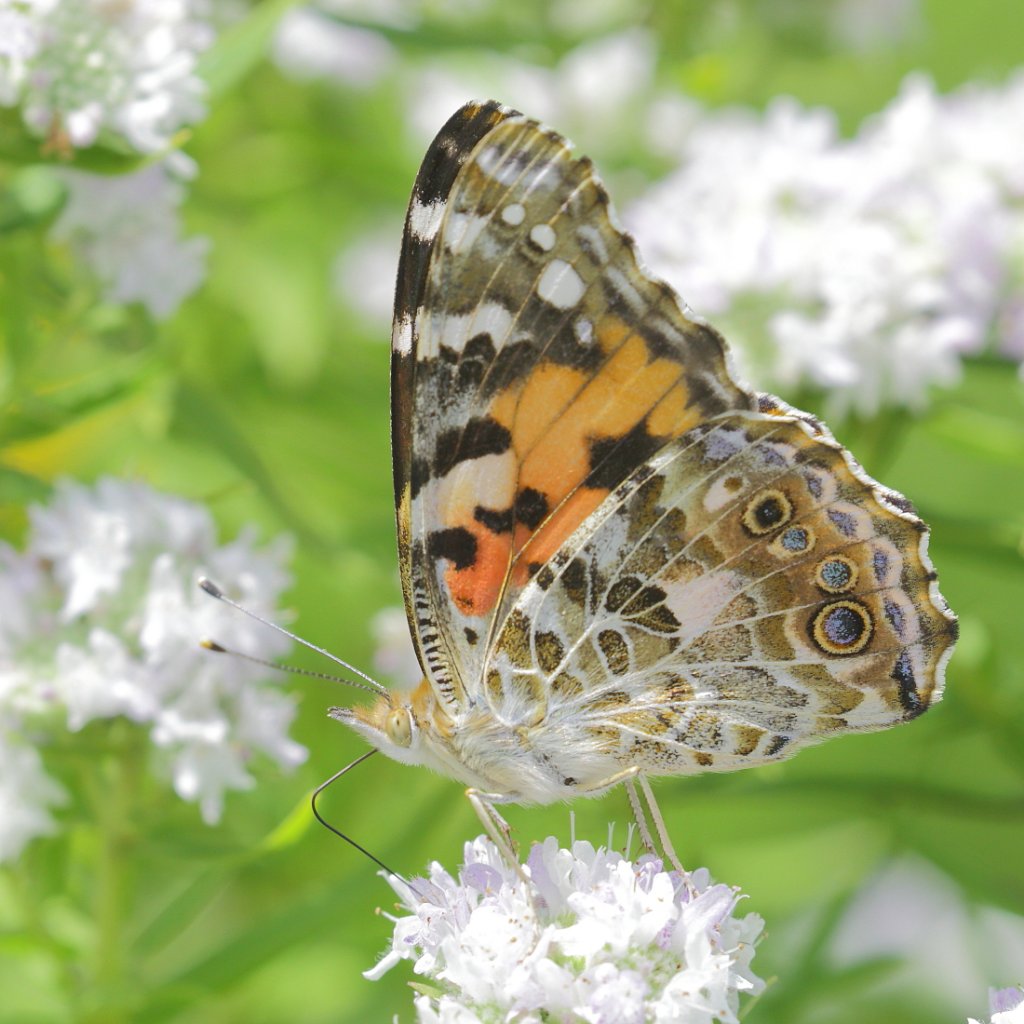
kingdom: Animalia
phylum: Arthropoda
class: Insecta
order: Lepidoptera
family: Nymphalidae
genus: Vanessa
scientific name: Vanessa cardui
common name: Painted Lady
